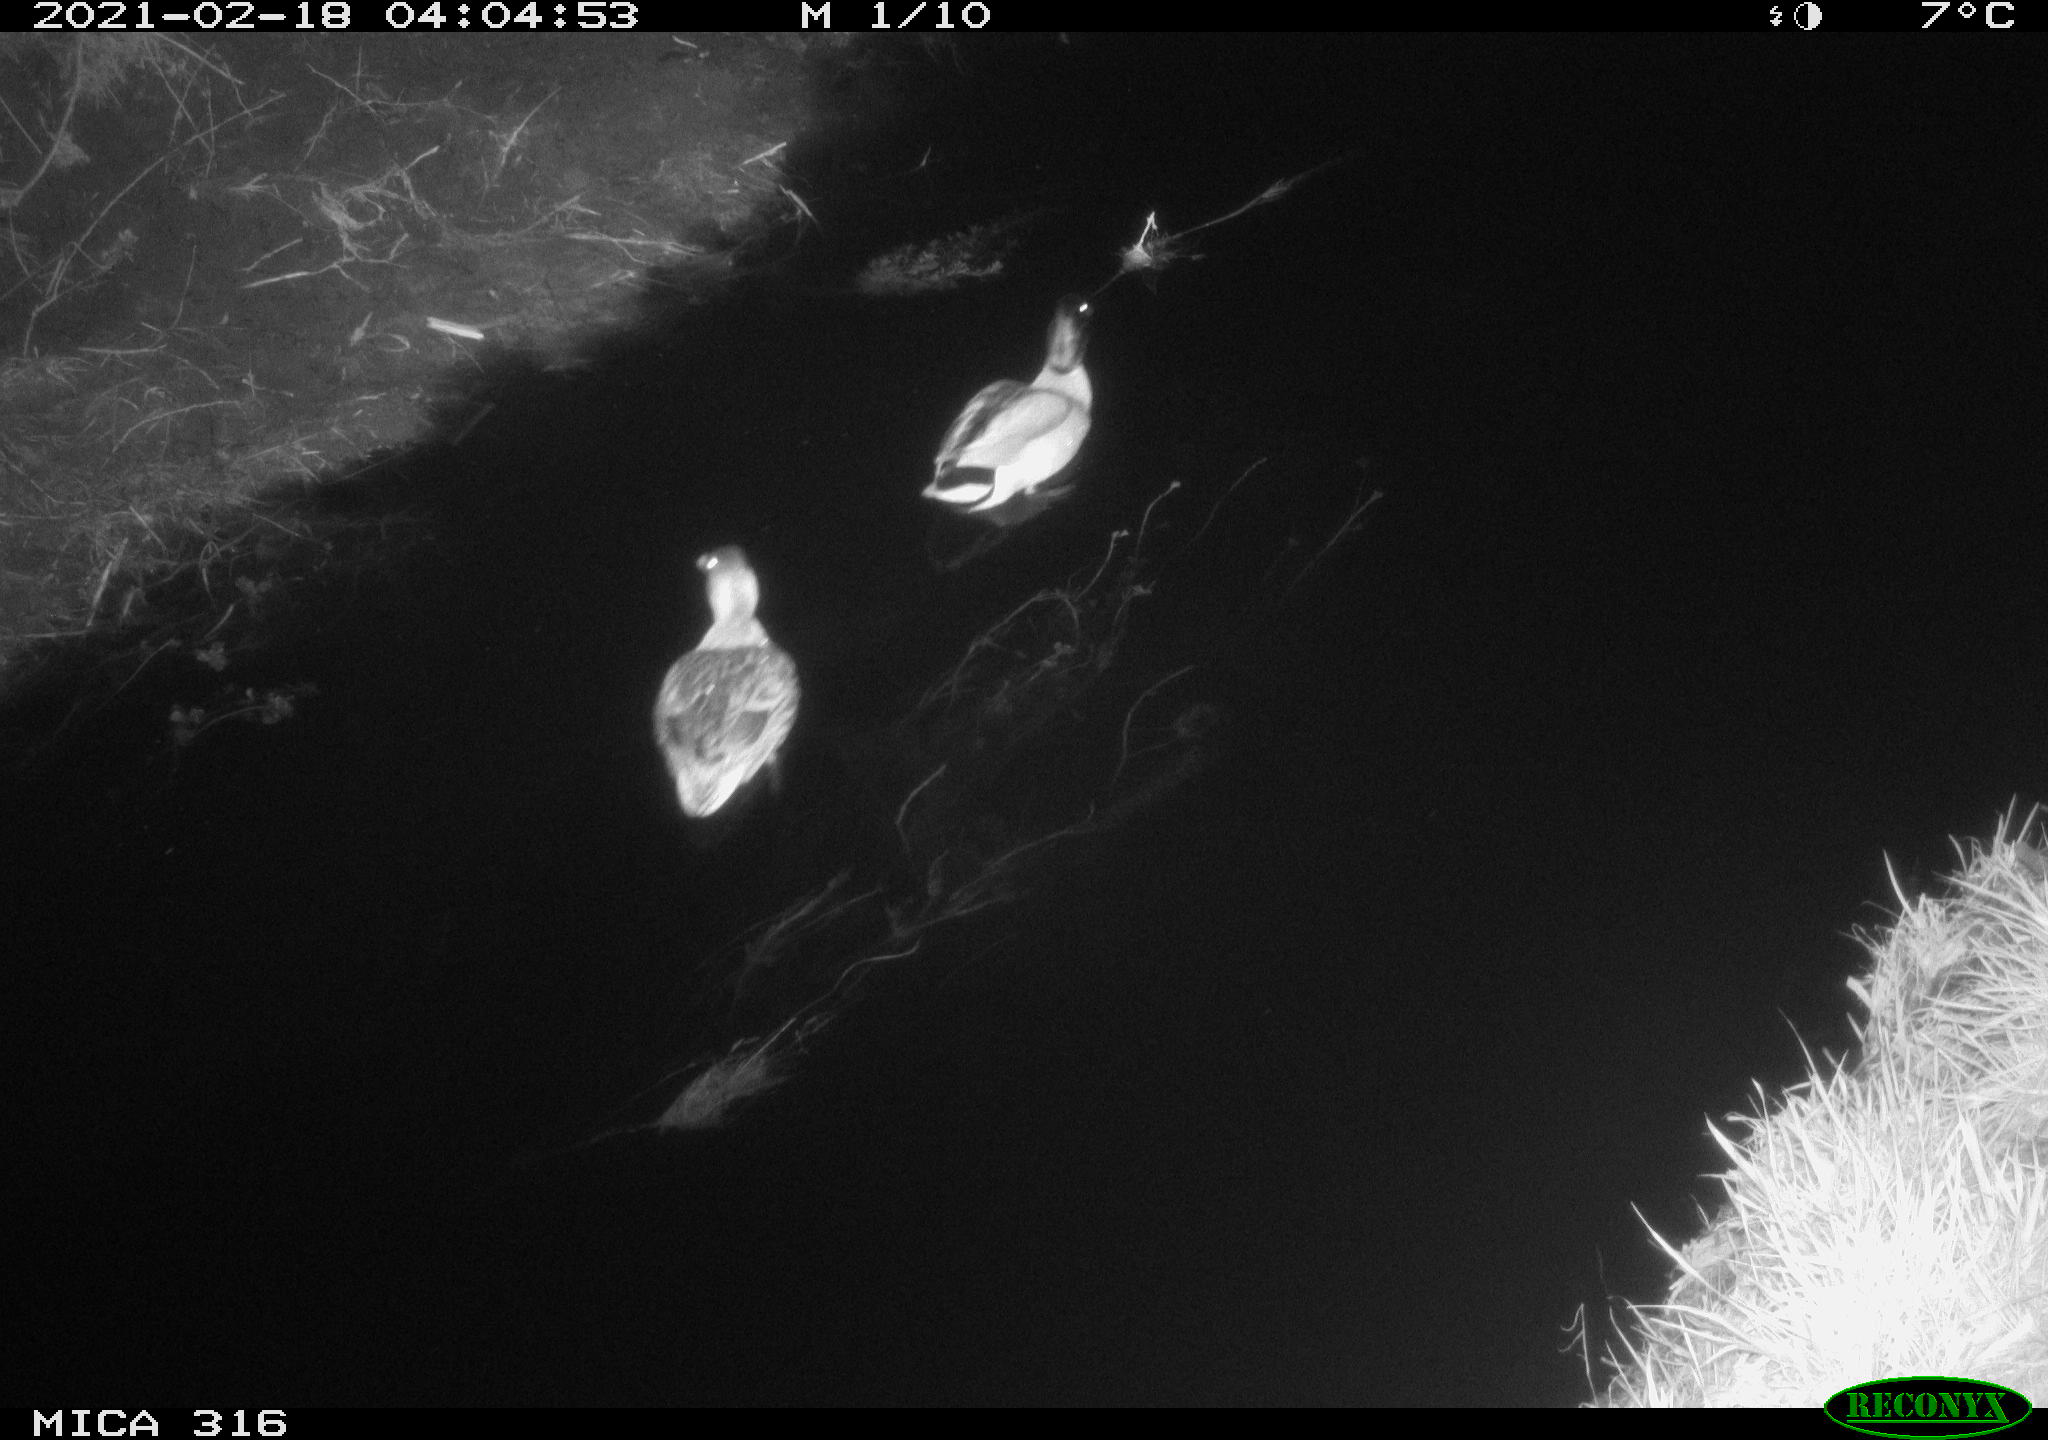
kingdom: Animalia
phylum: Chordata
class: Aves
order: Anseriformes
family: Anatidae
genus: Anas
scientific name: Anas platyrhynchos
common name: Mallard
